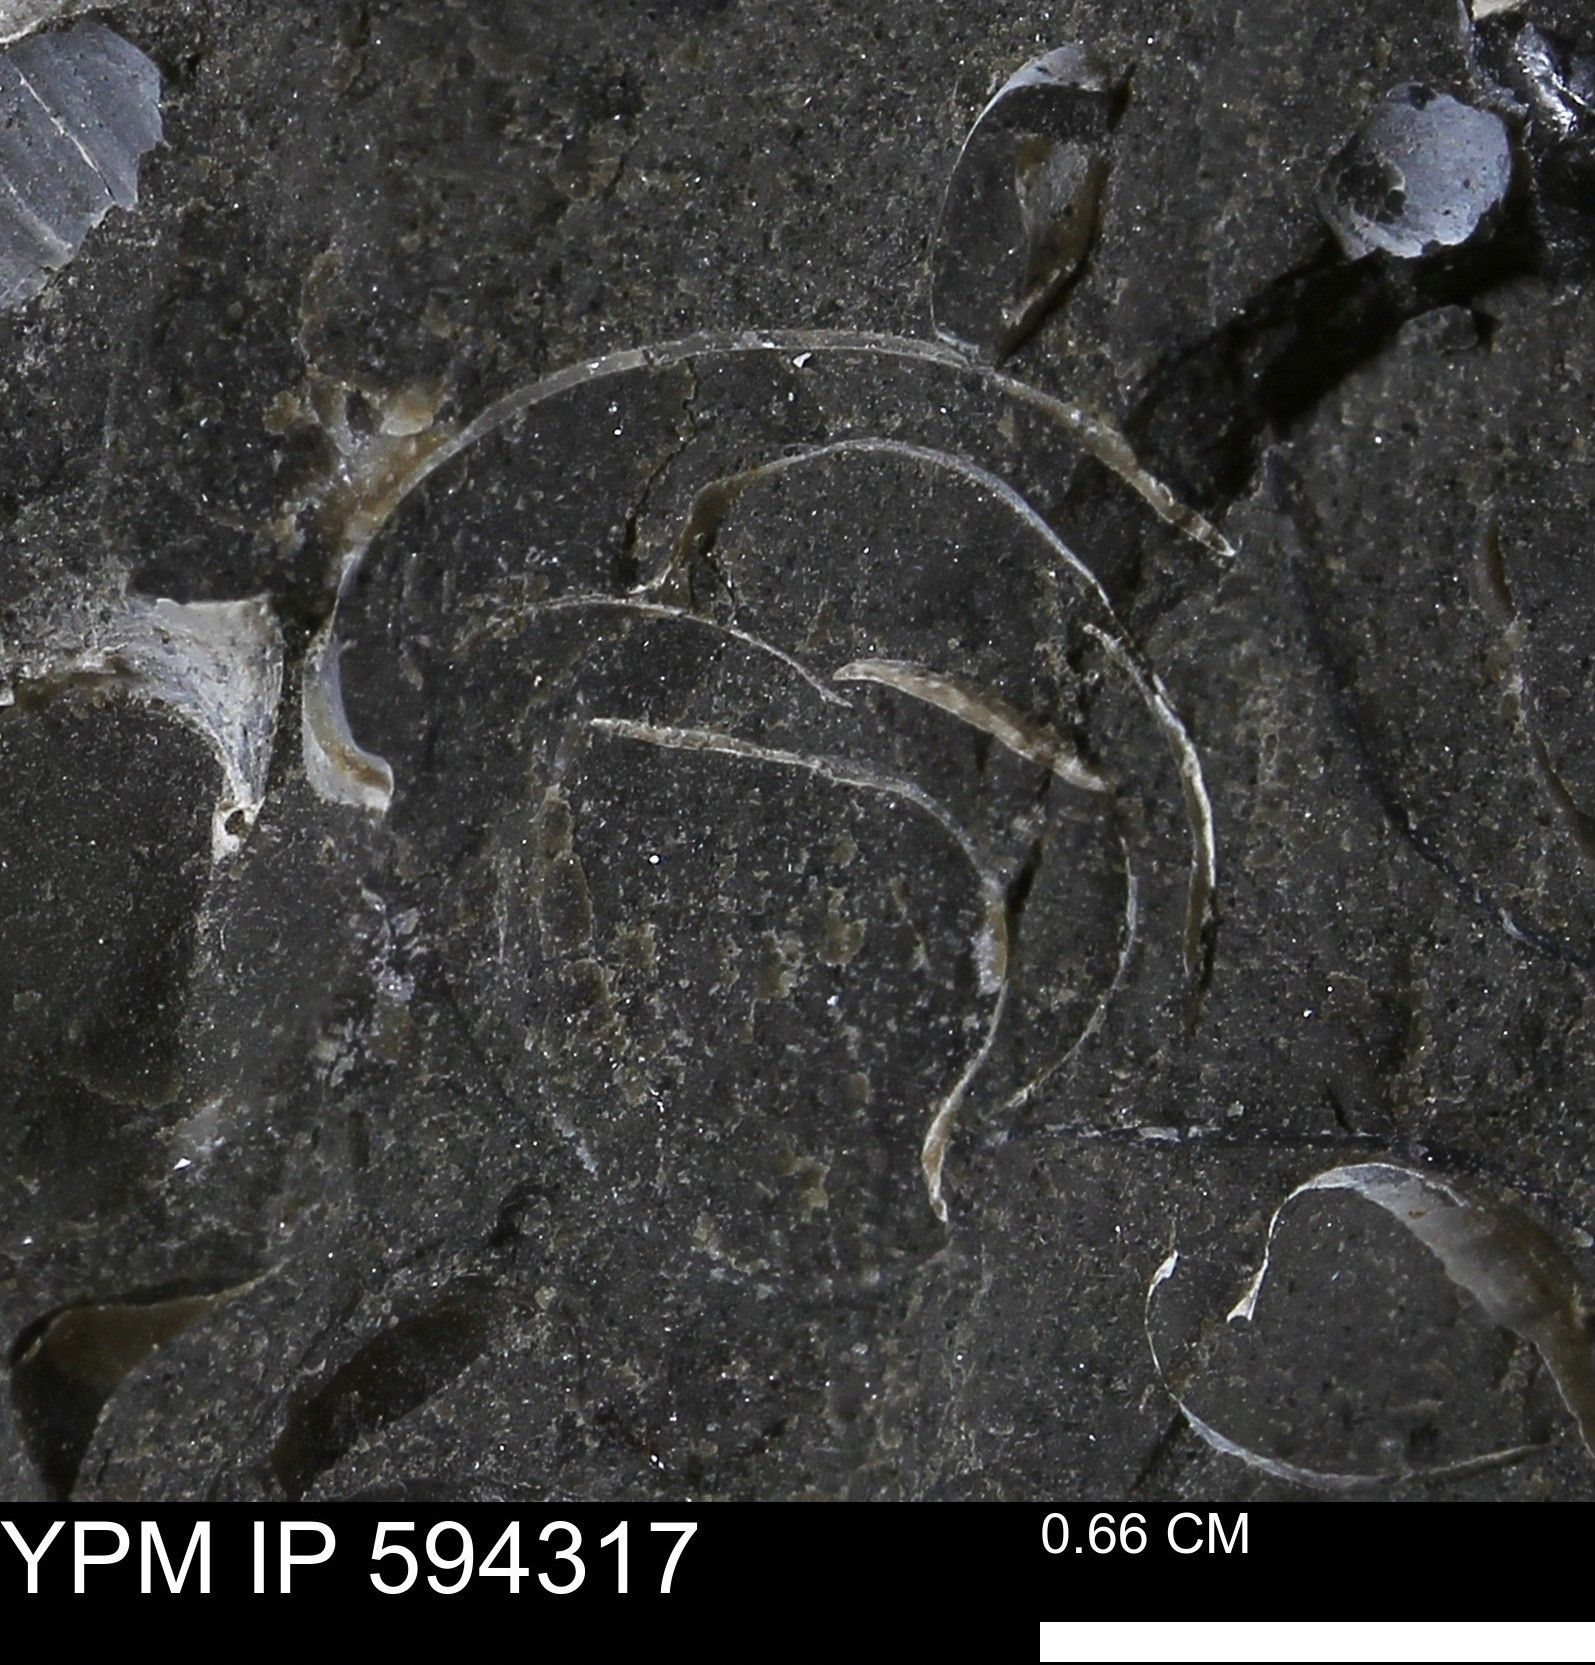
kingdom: Animalia
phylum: Mollusca
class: Bivalvia
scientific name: Bivalvia
